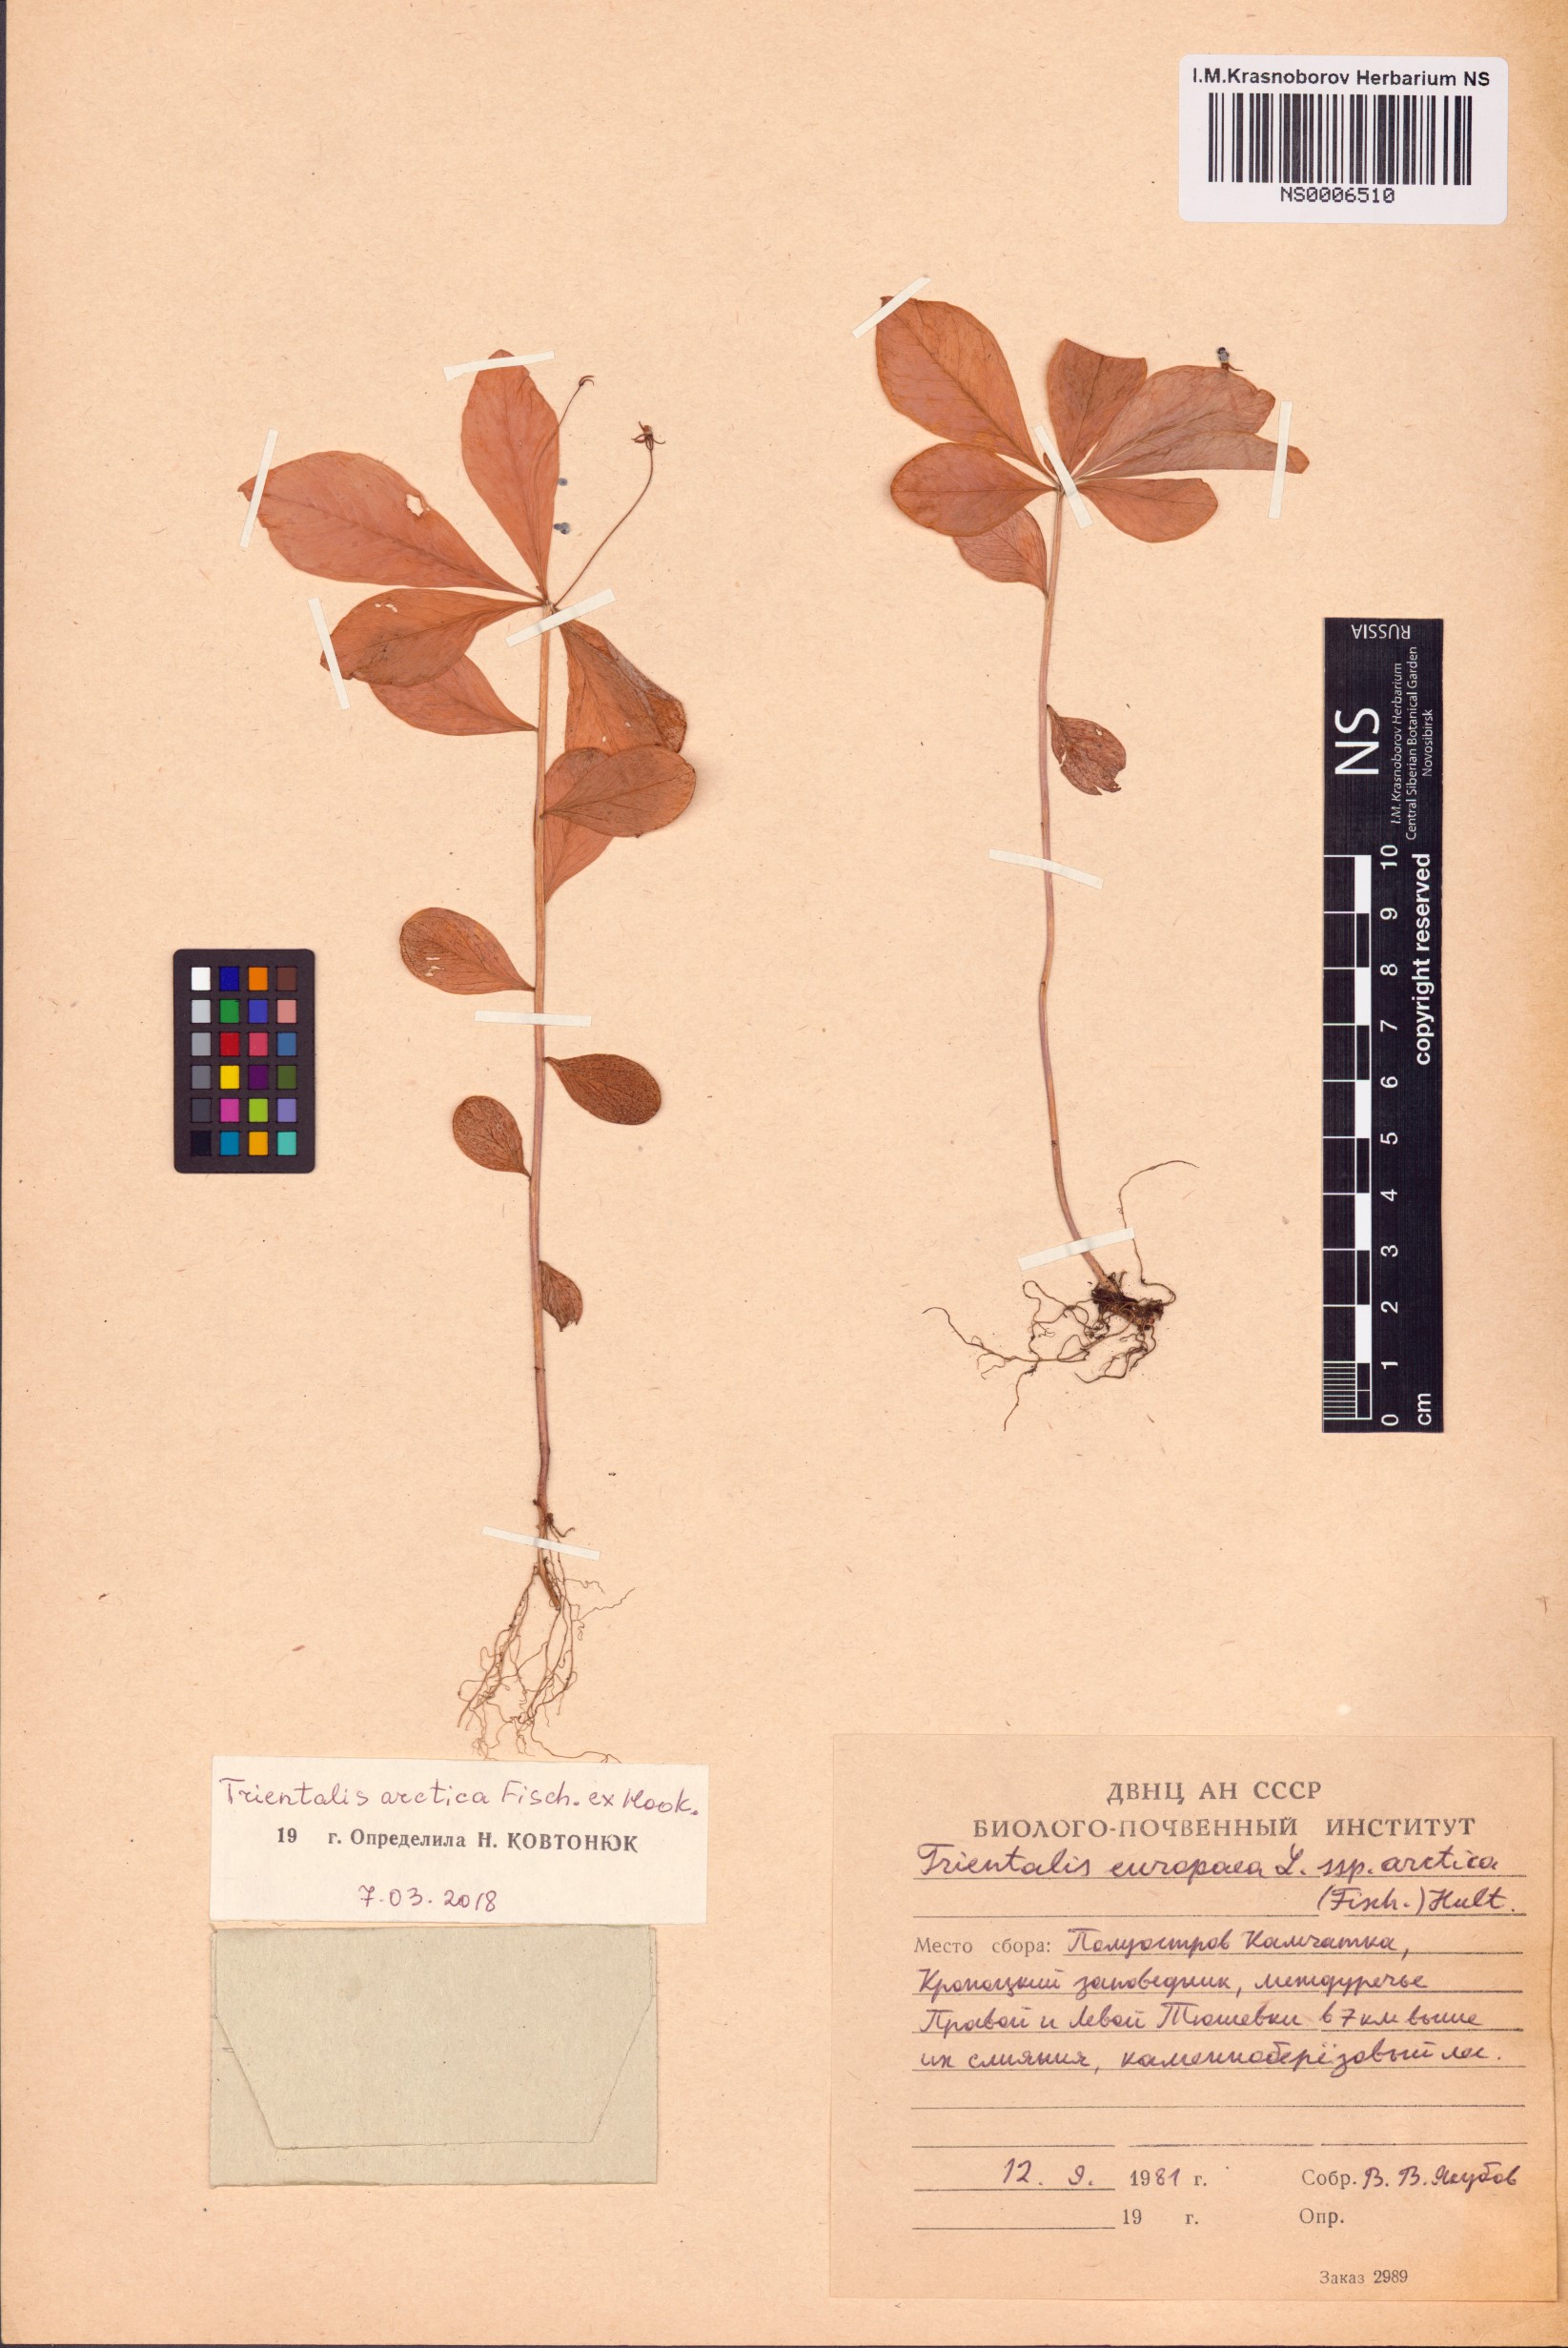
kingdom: Plantae
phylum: Tracheophyta
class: Magnoliopsida
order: Ericales
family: Primulaceae
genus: Lysimachia
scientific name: Lysimachia europaea
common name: Arctic starflower
